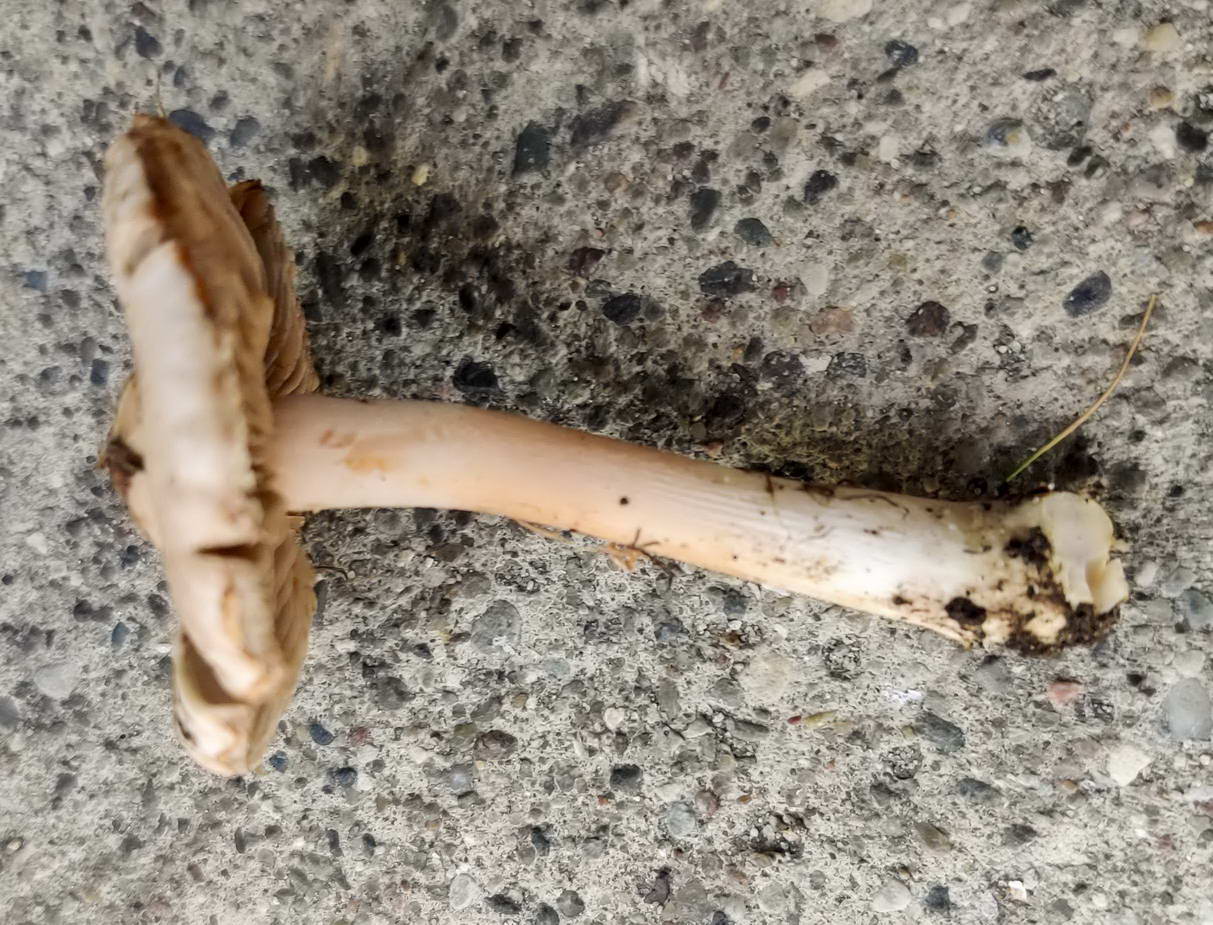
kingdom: Fungi
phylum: Basidiomycota
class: Agaricomycetes
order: Agaricales
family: Inocybaceae
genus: Inocybe
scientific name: Inocybe godeyi
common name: orangerødmende trævlhat
